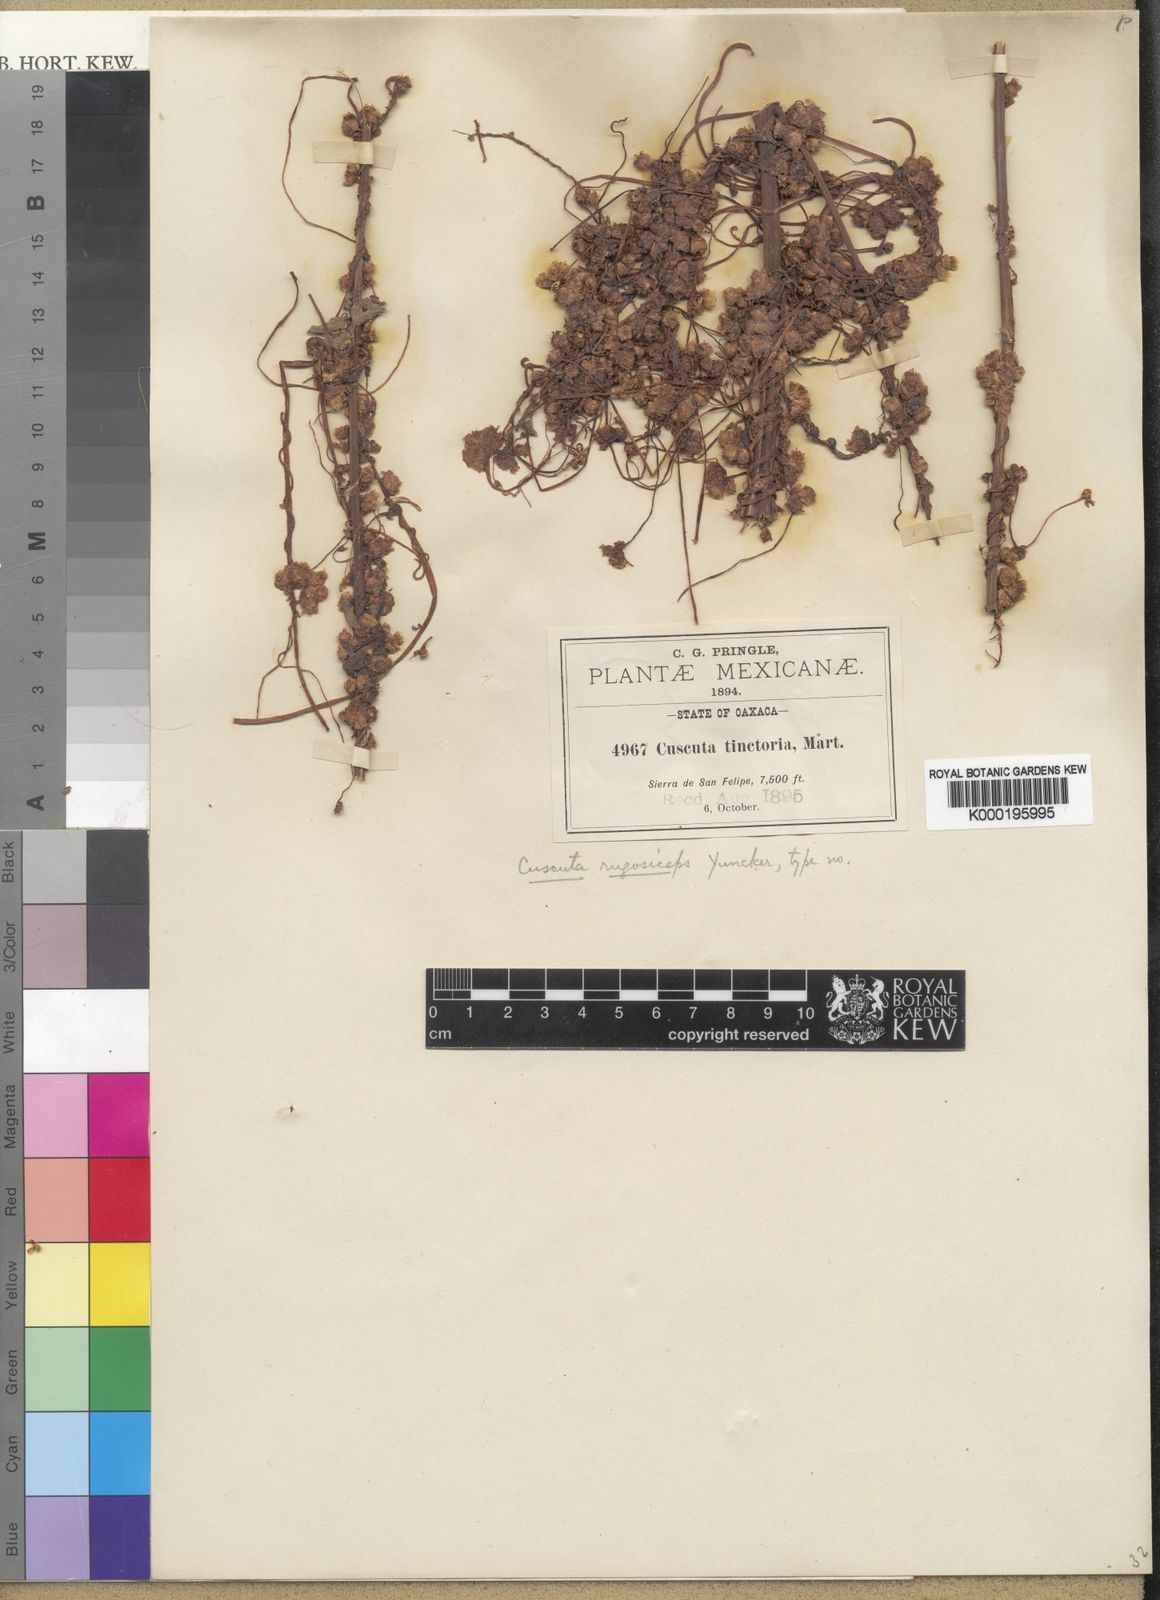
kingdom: Plantae
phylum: Tracheophyta
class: Magnoliopsida
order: Solanales
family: Convolvulaceae
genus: Cuscuta
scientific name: Cuscuta rugosiceps
